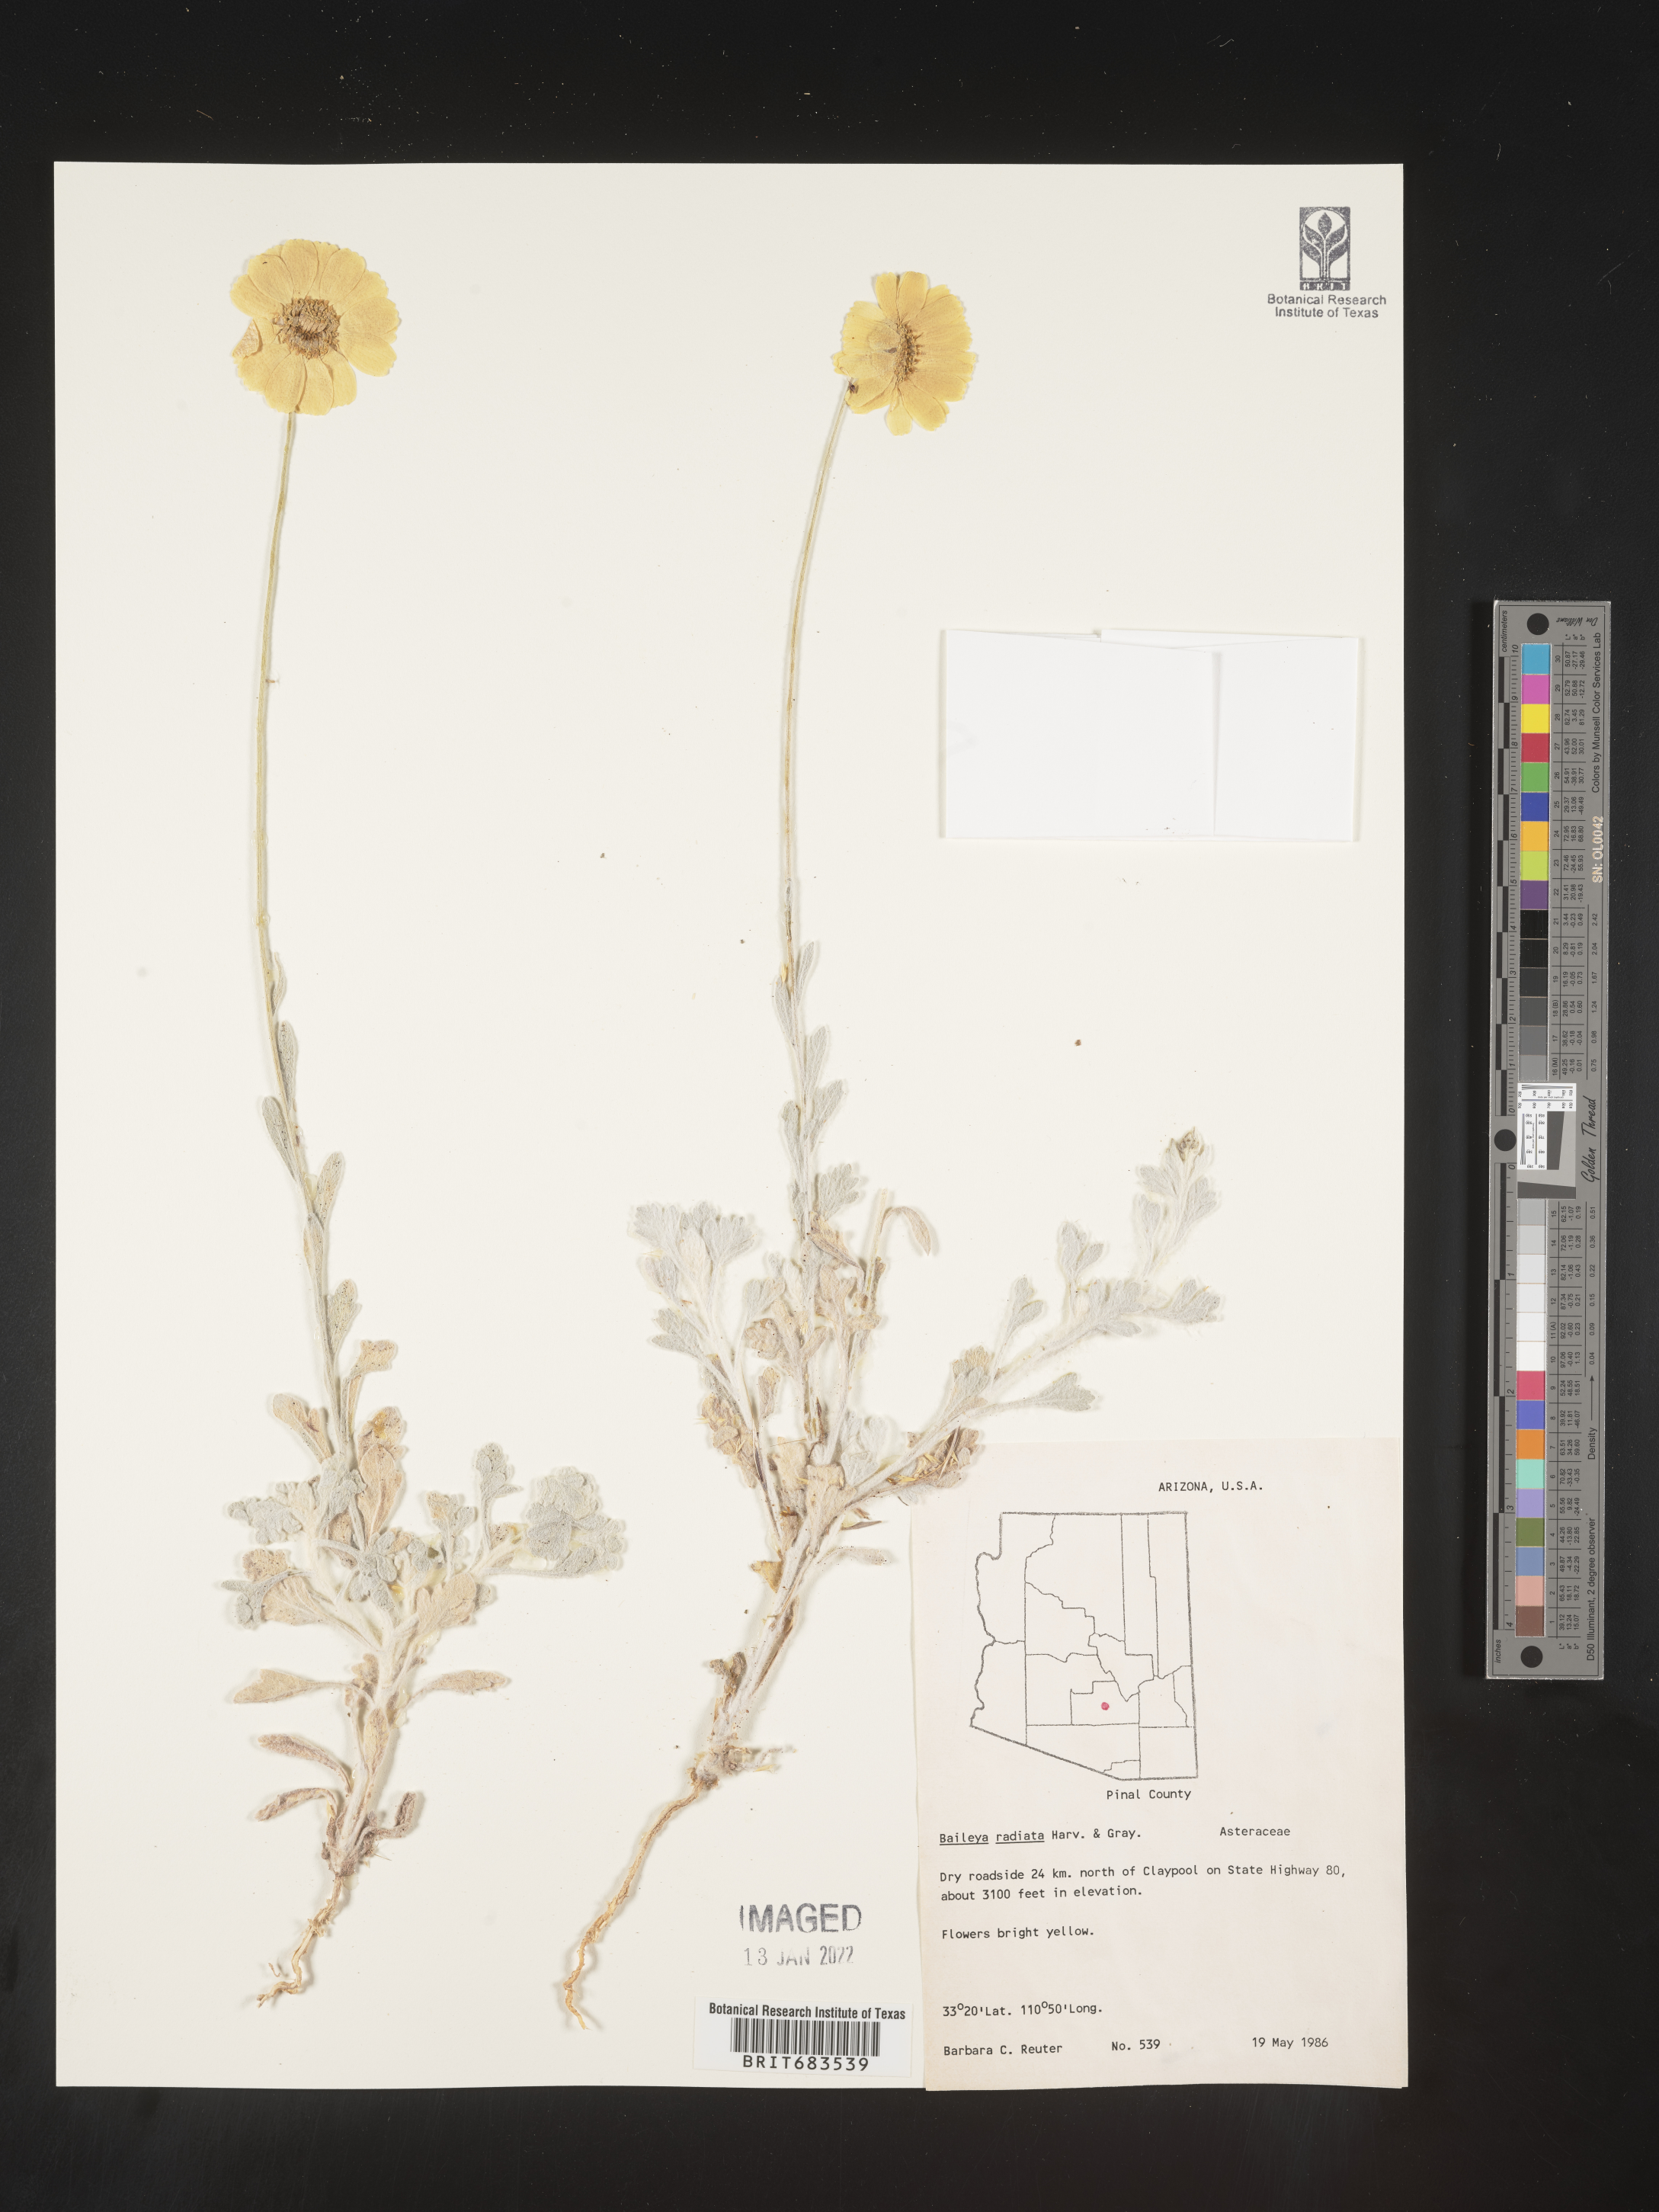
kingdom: Plantae
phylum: Tracheophyta
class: Magnoliopsida
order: Asterales
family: Asteraceae
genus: Baileya
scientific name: Baileya multiradiata
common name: Desert-marigold
